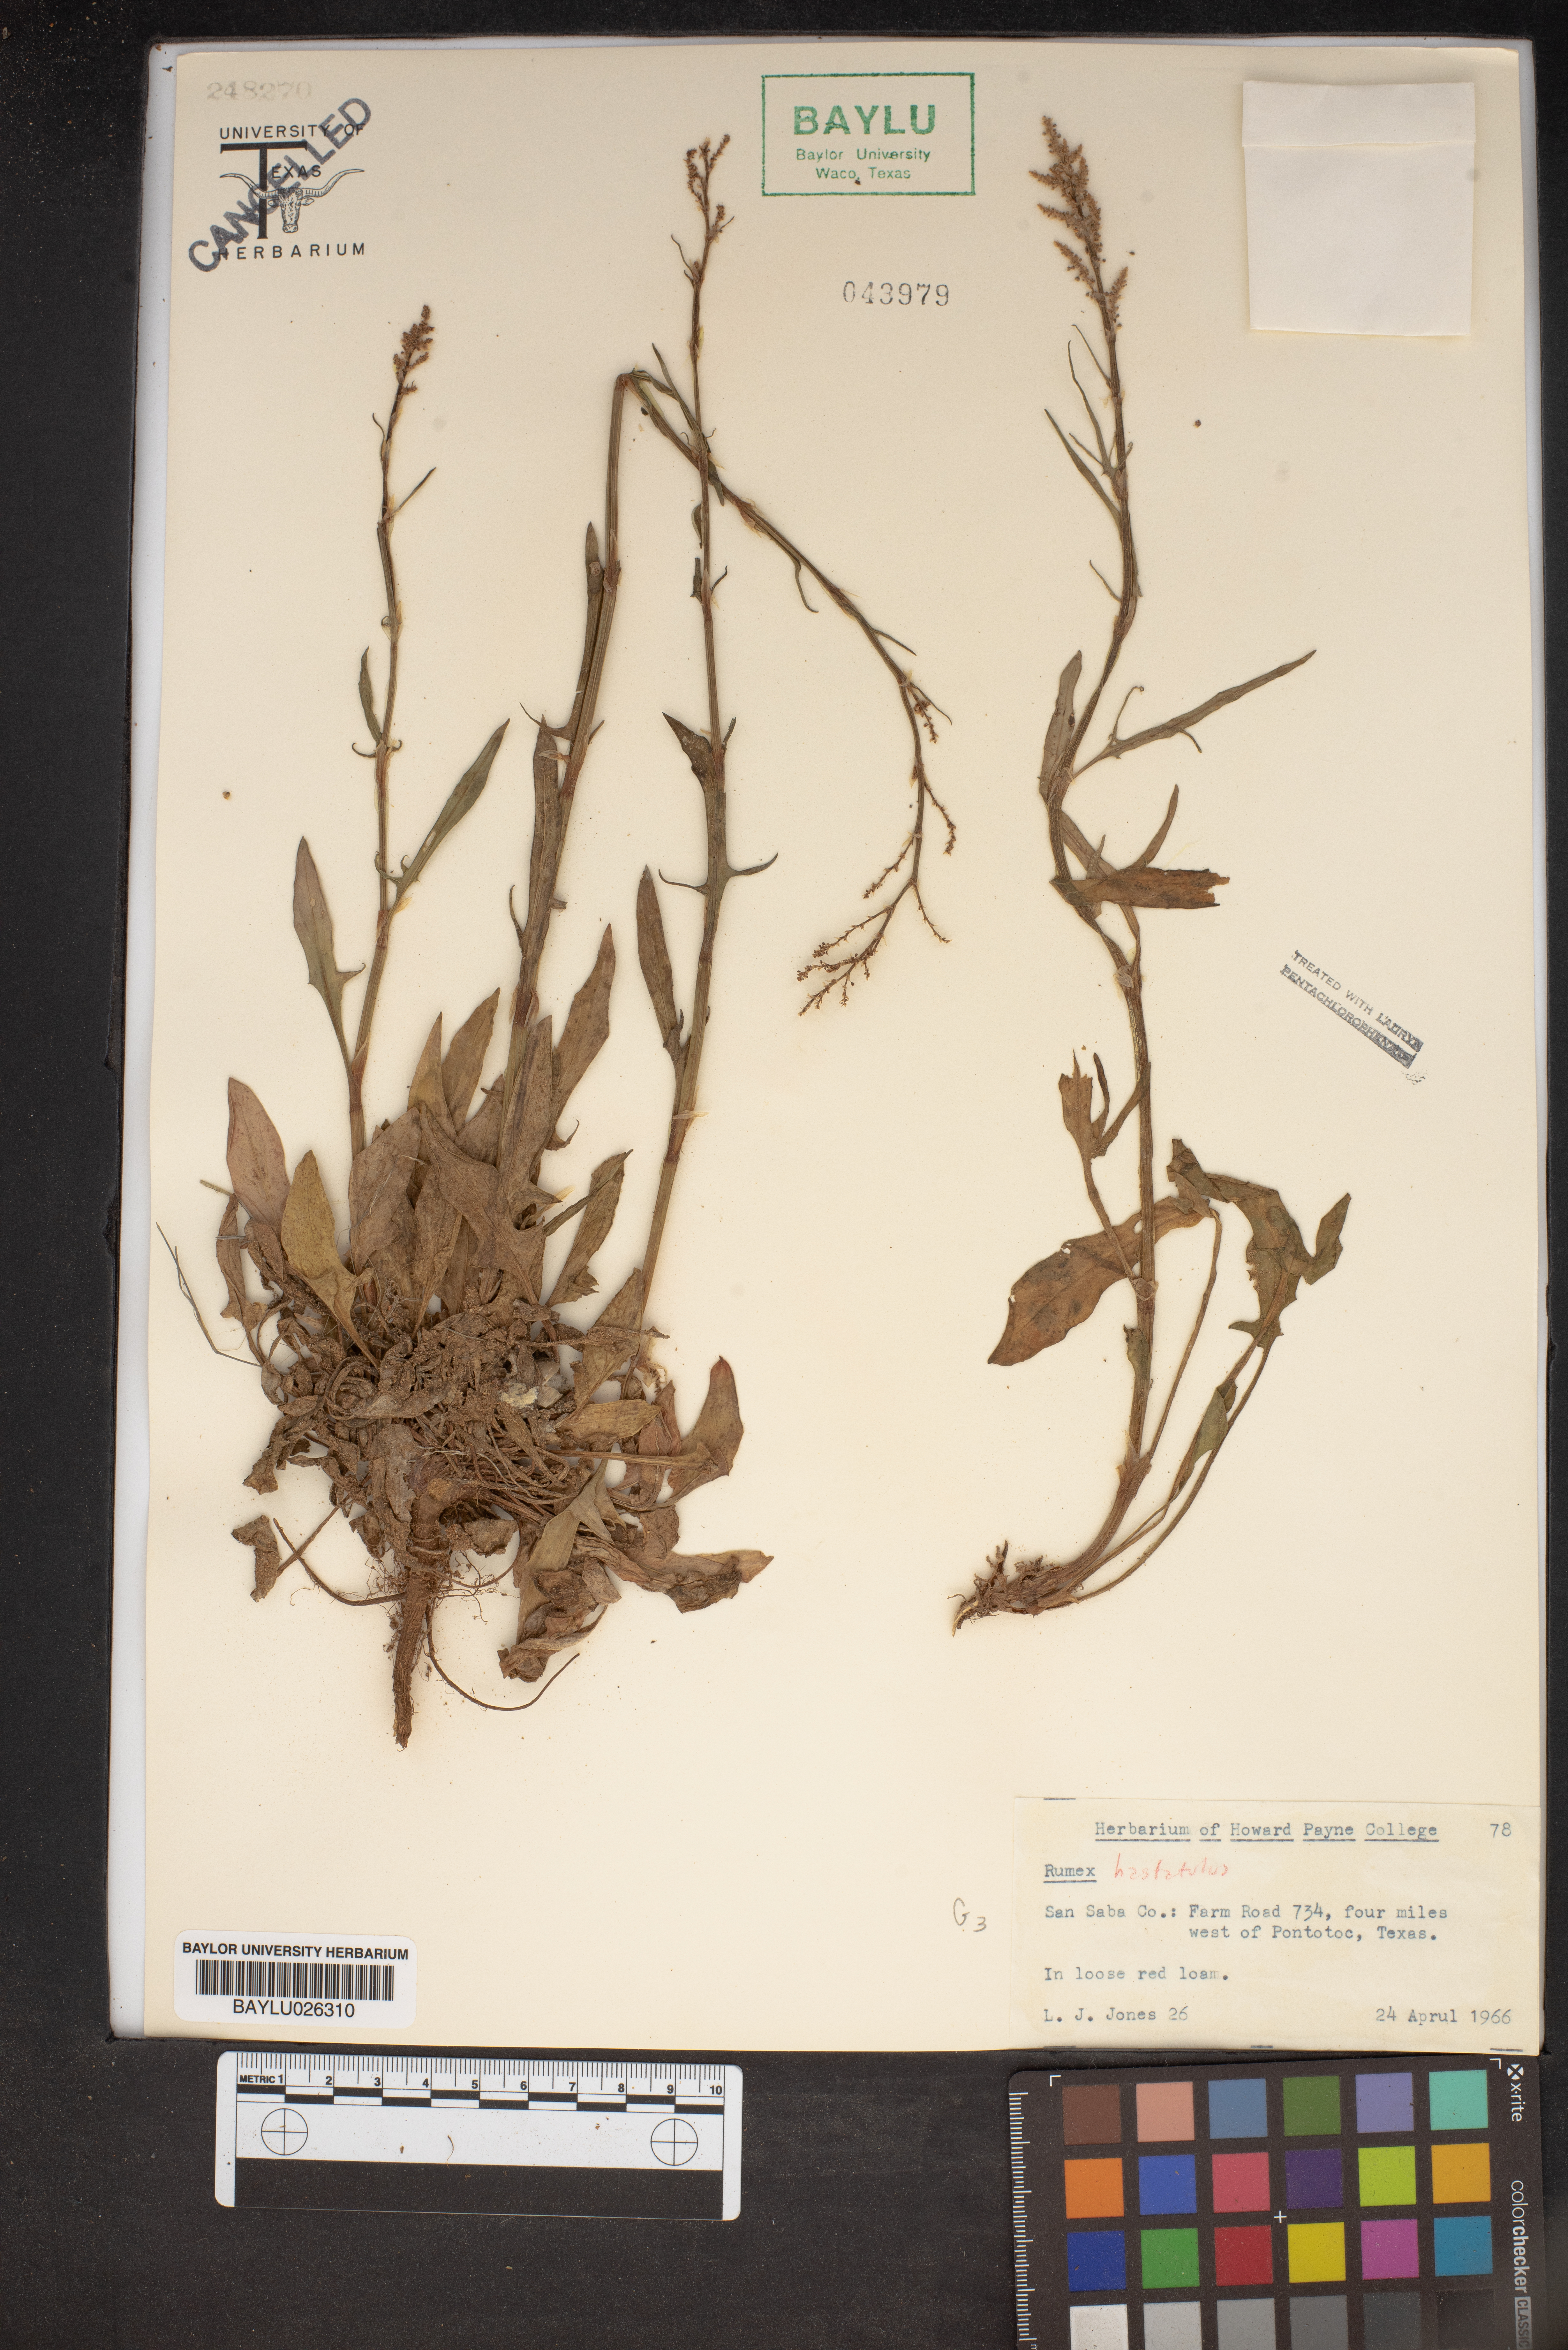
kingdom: Plantae
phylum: Tracheophyta
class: Magnoliopsida
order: Caryophyllales
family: Polygonaceae
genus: Rumex
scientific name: Rumex hastatulus
